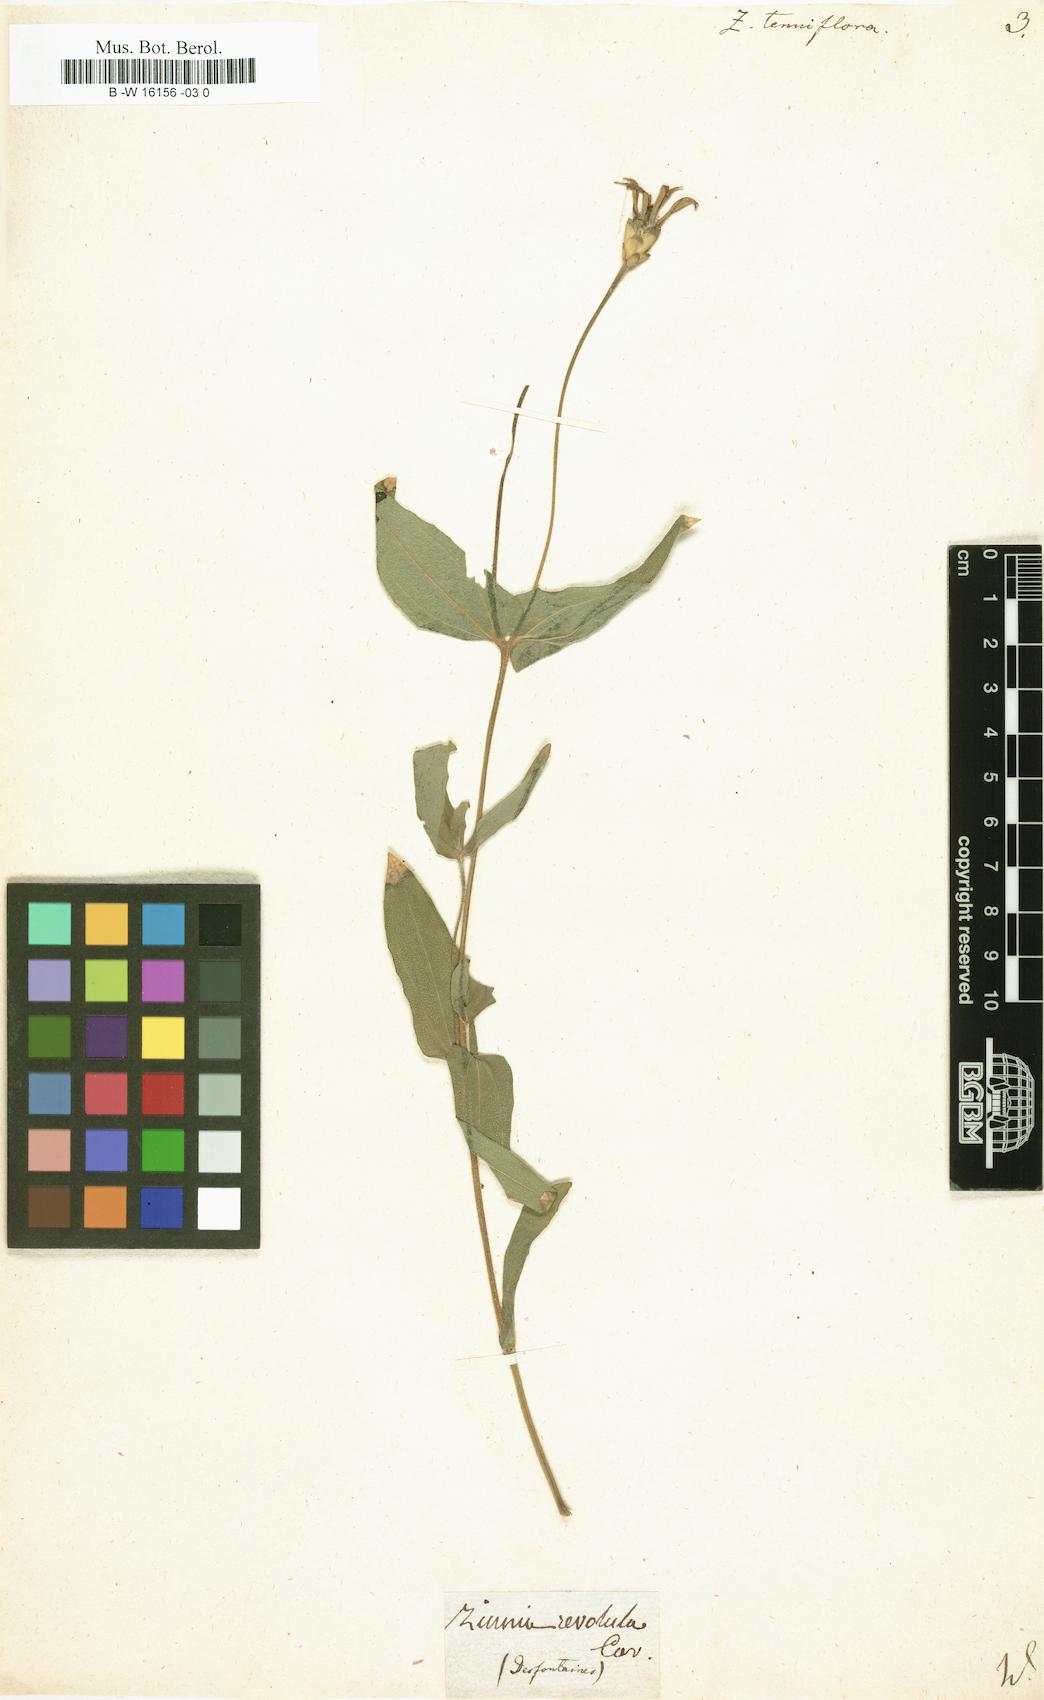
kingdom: Plantae
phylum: Tracheophyta
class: Magnoliopsida
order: Asterales
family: Asteraceae
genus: Zinnia
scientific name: Zinnia peruviana
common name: Peruvian zinnia
